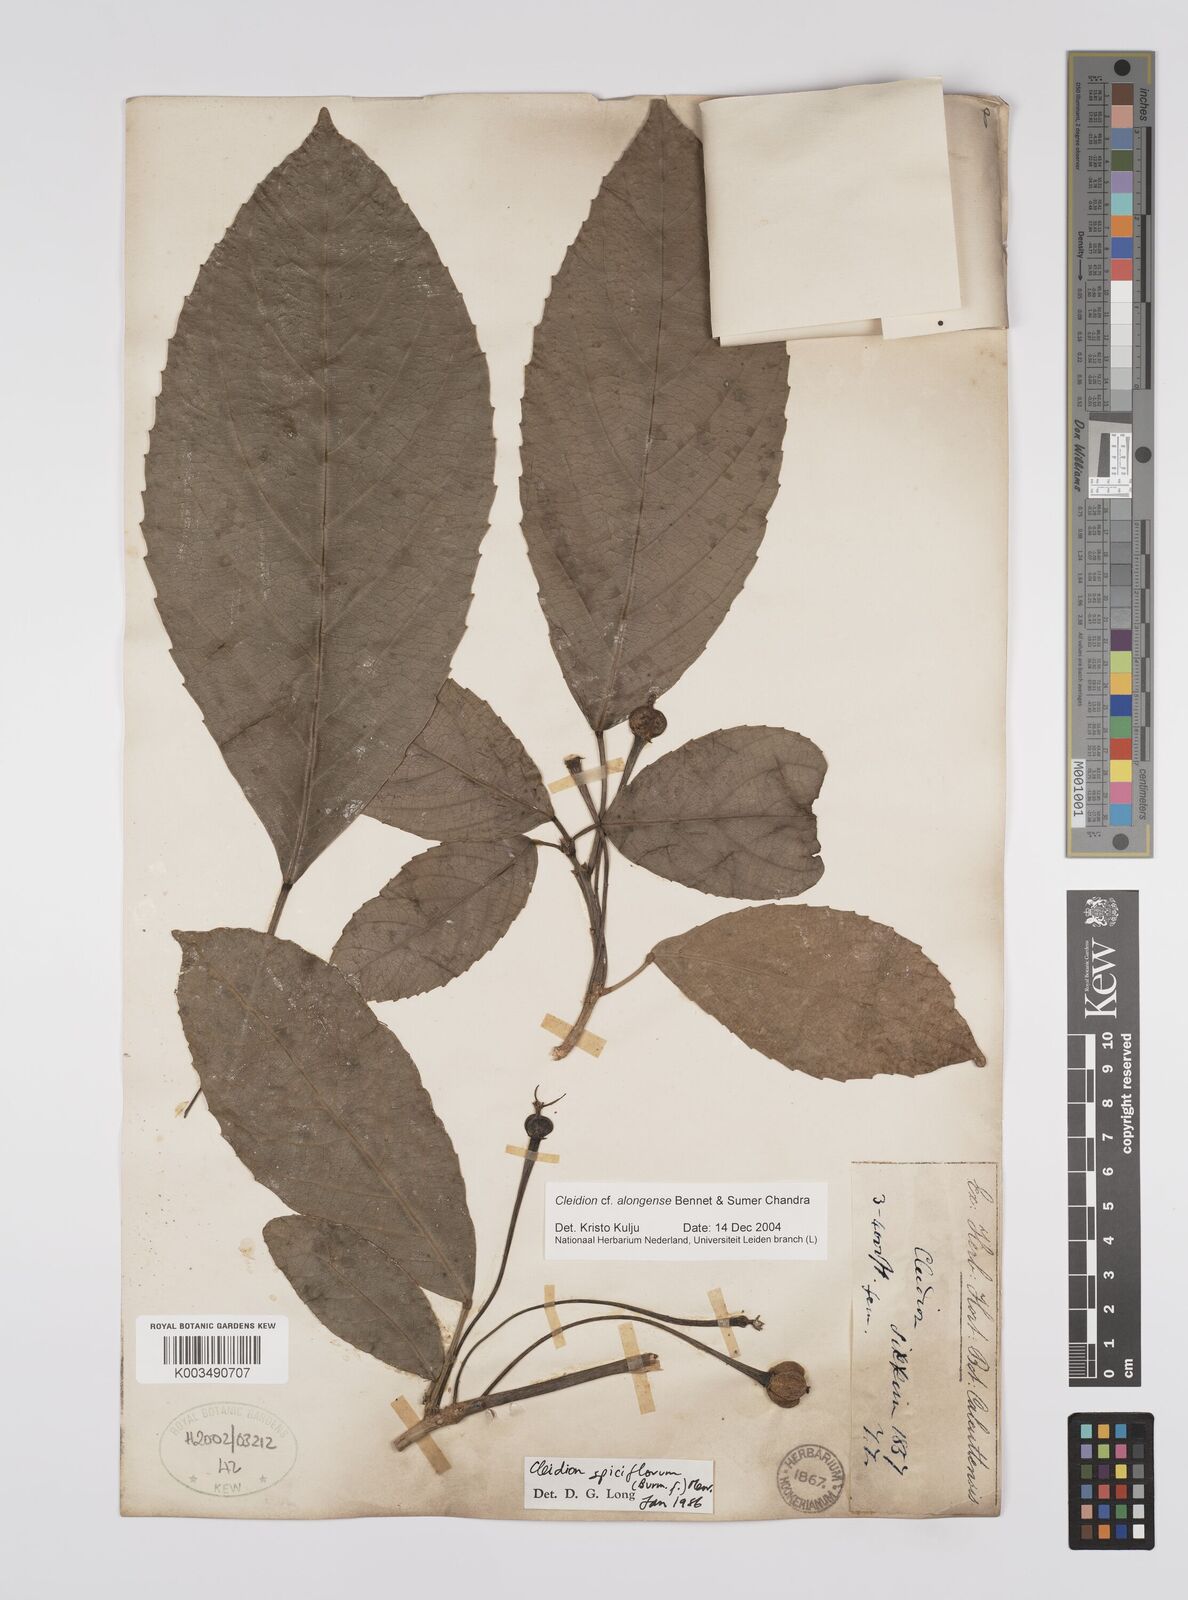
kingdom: Plantae
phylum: Tracheophyta
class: Magnoliopsida
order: Malpighiales
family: Euphorbiaceae
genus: Cleidion
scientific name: Cleidion javanicum
